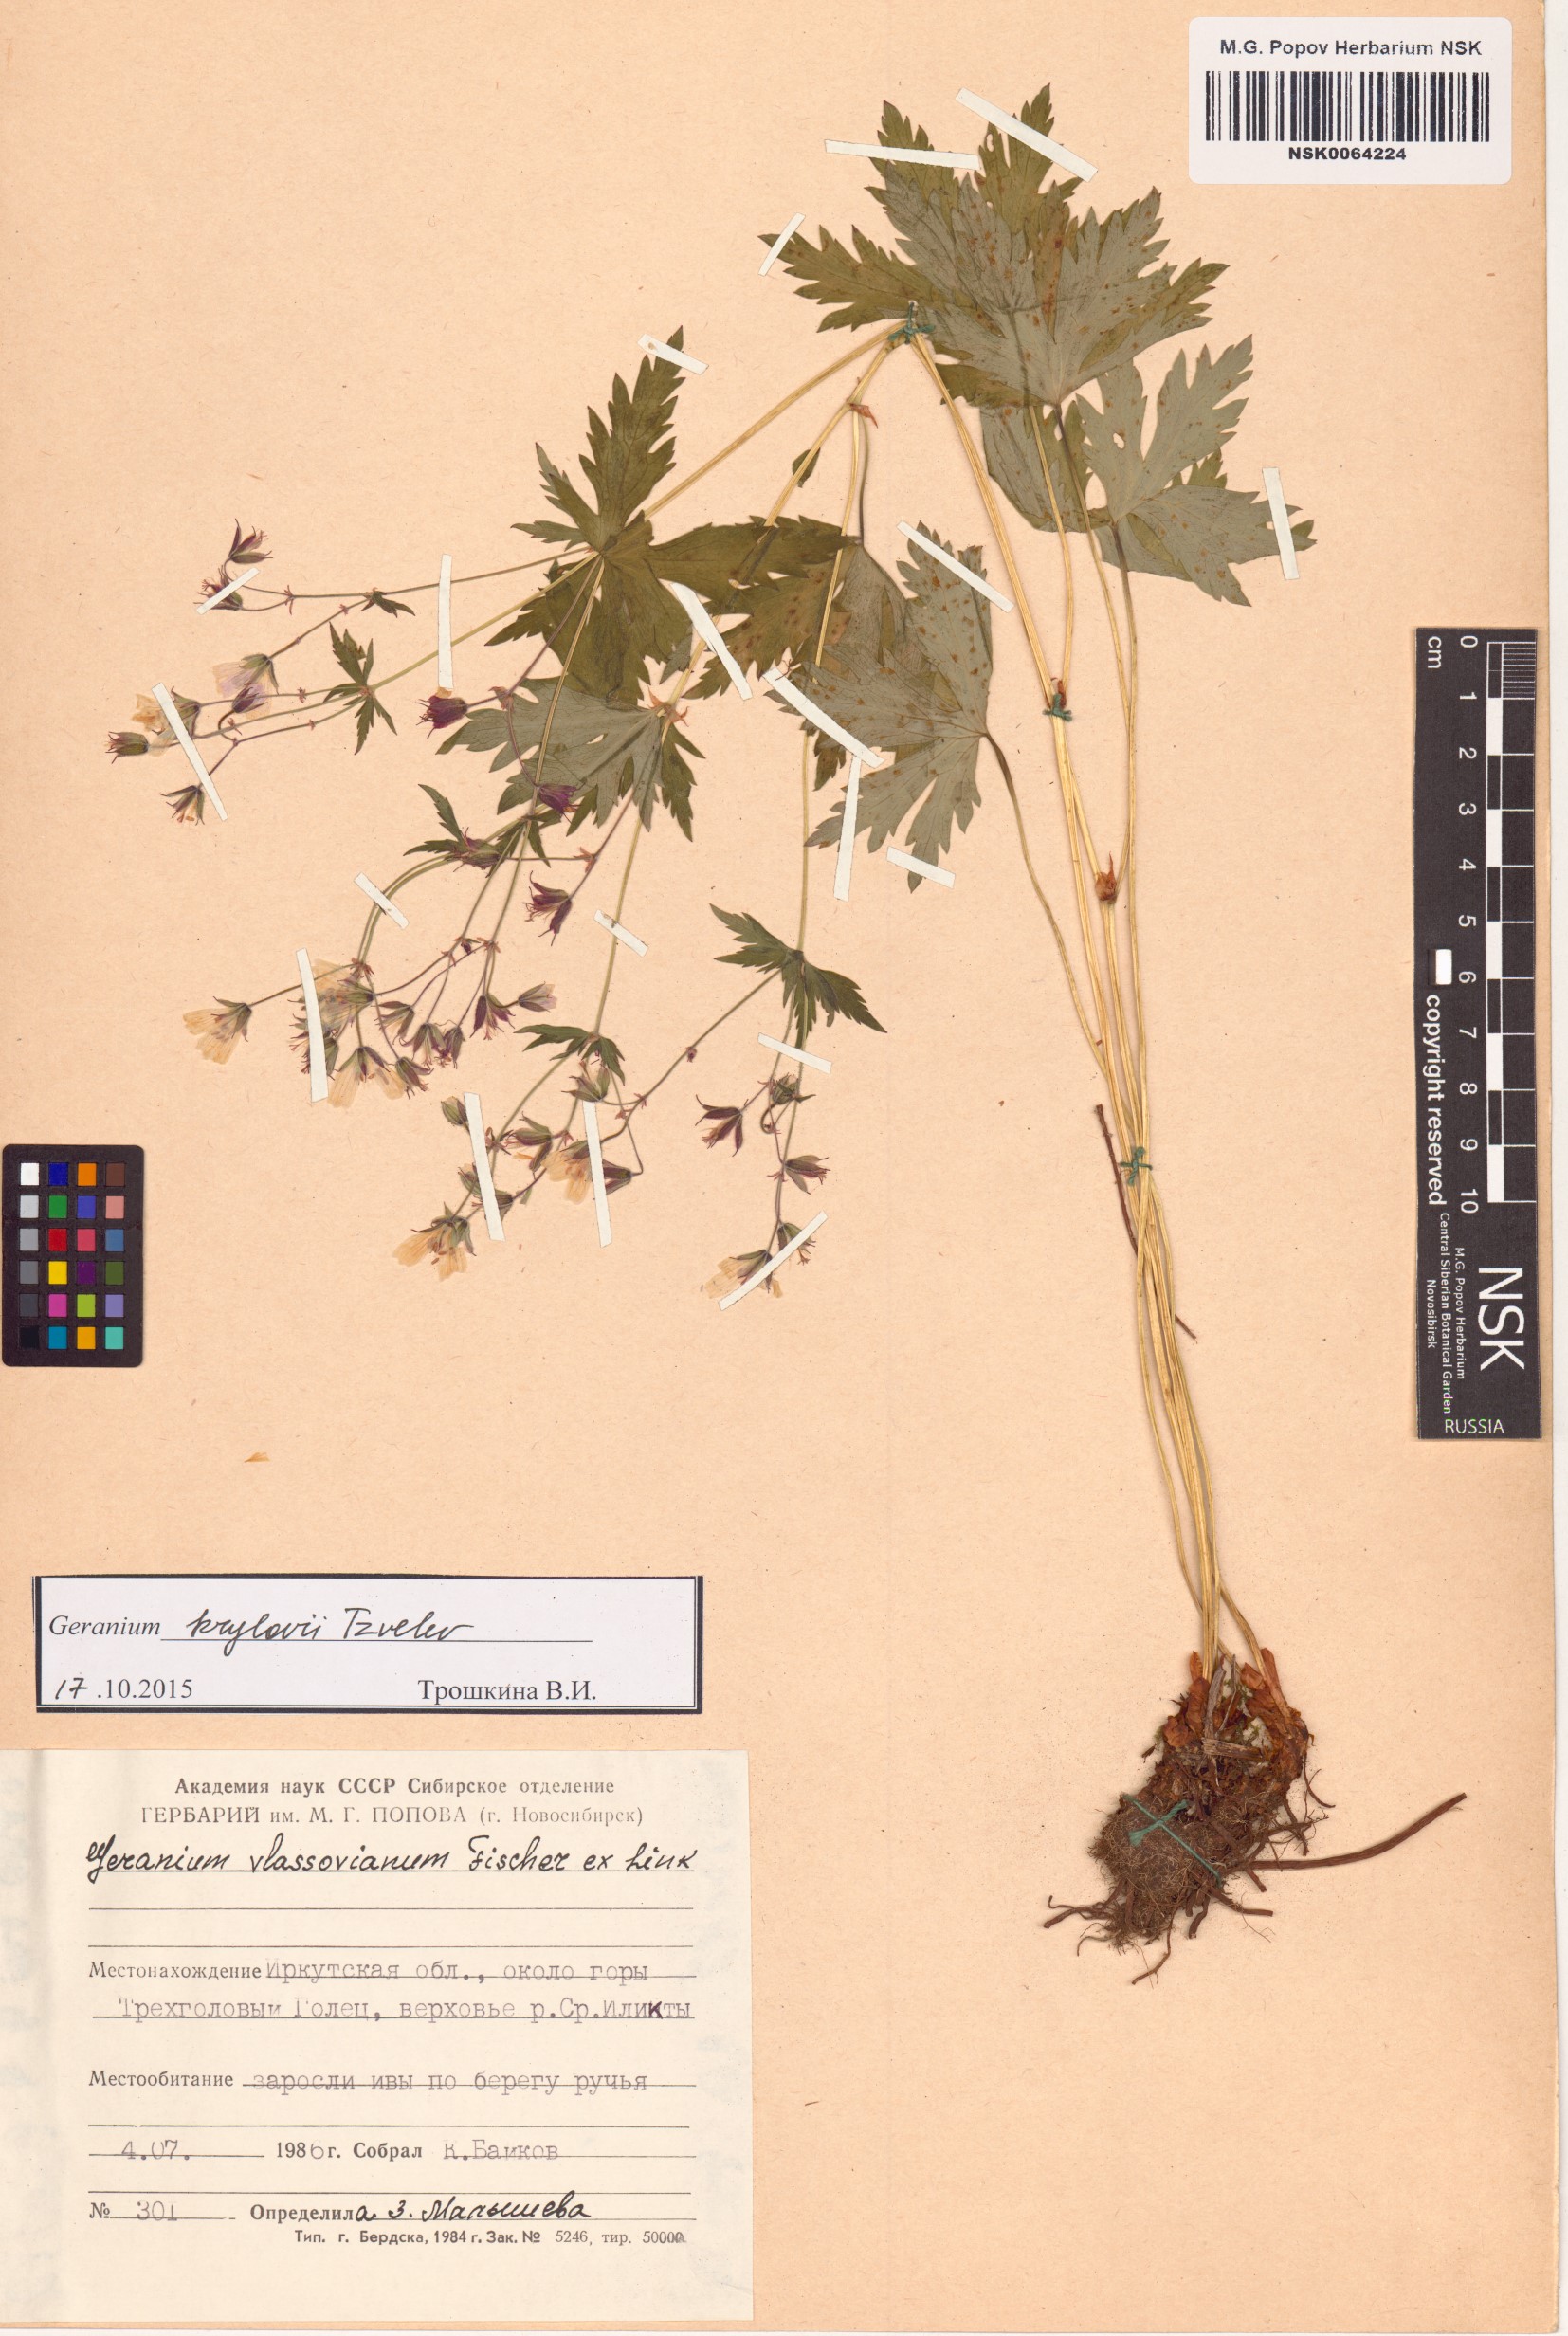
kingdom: Plantae
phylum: Tracheophyta
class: Magnoliopsida
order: Geraniales
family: Geraniaceae
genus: Geranium
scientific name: Geranium sylvaticum
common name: Wood crane's-bill
